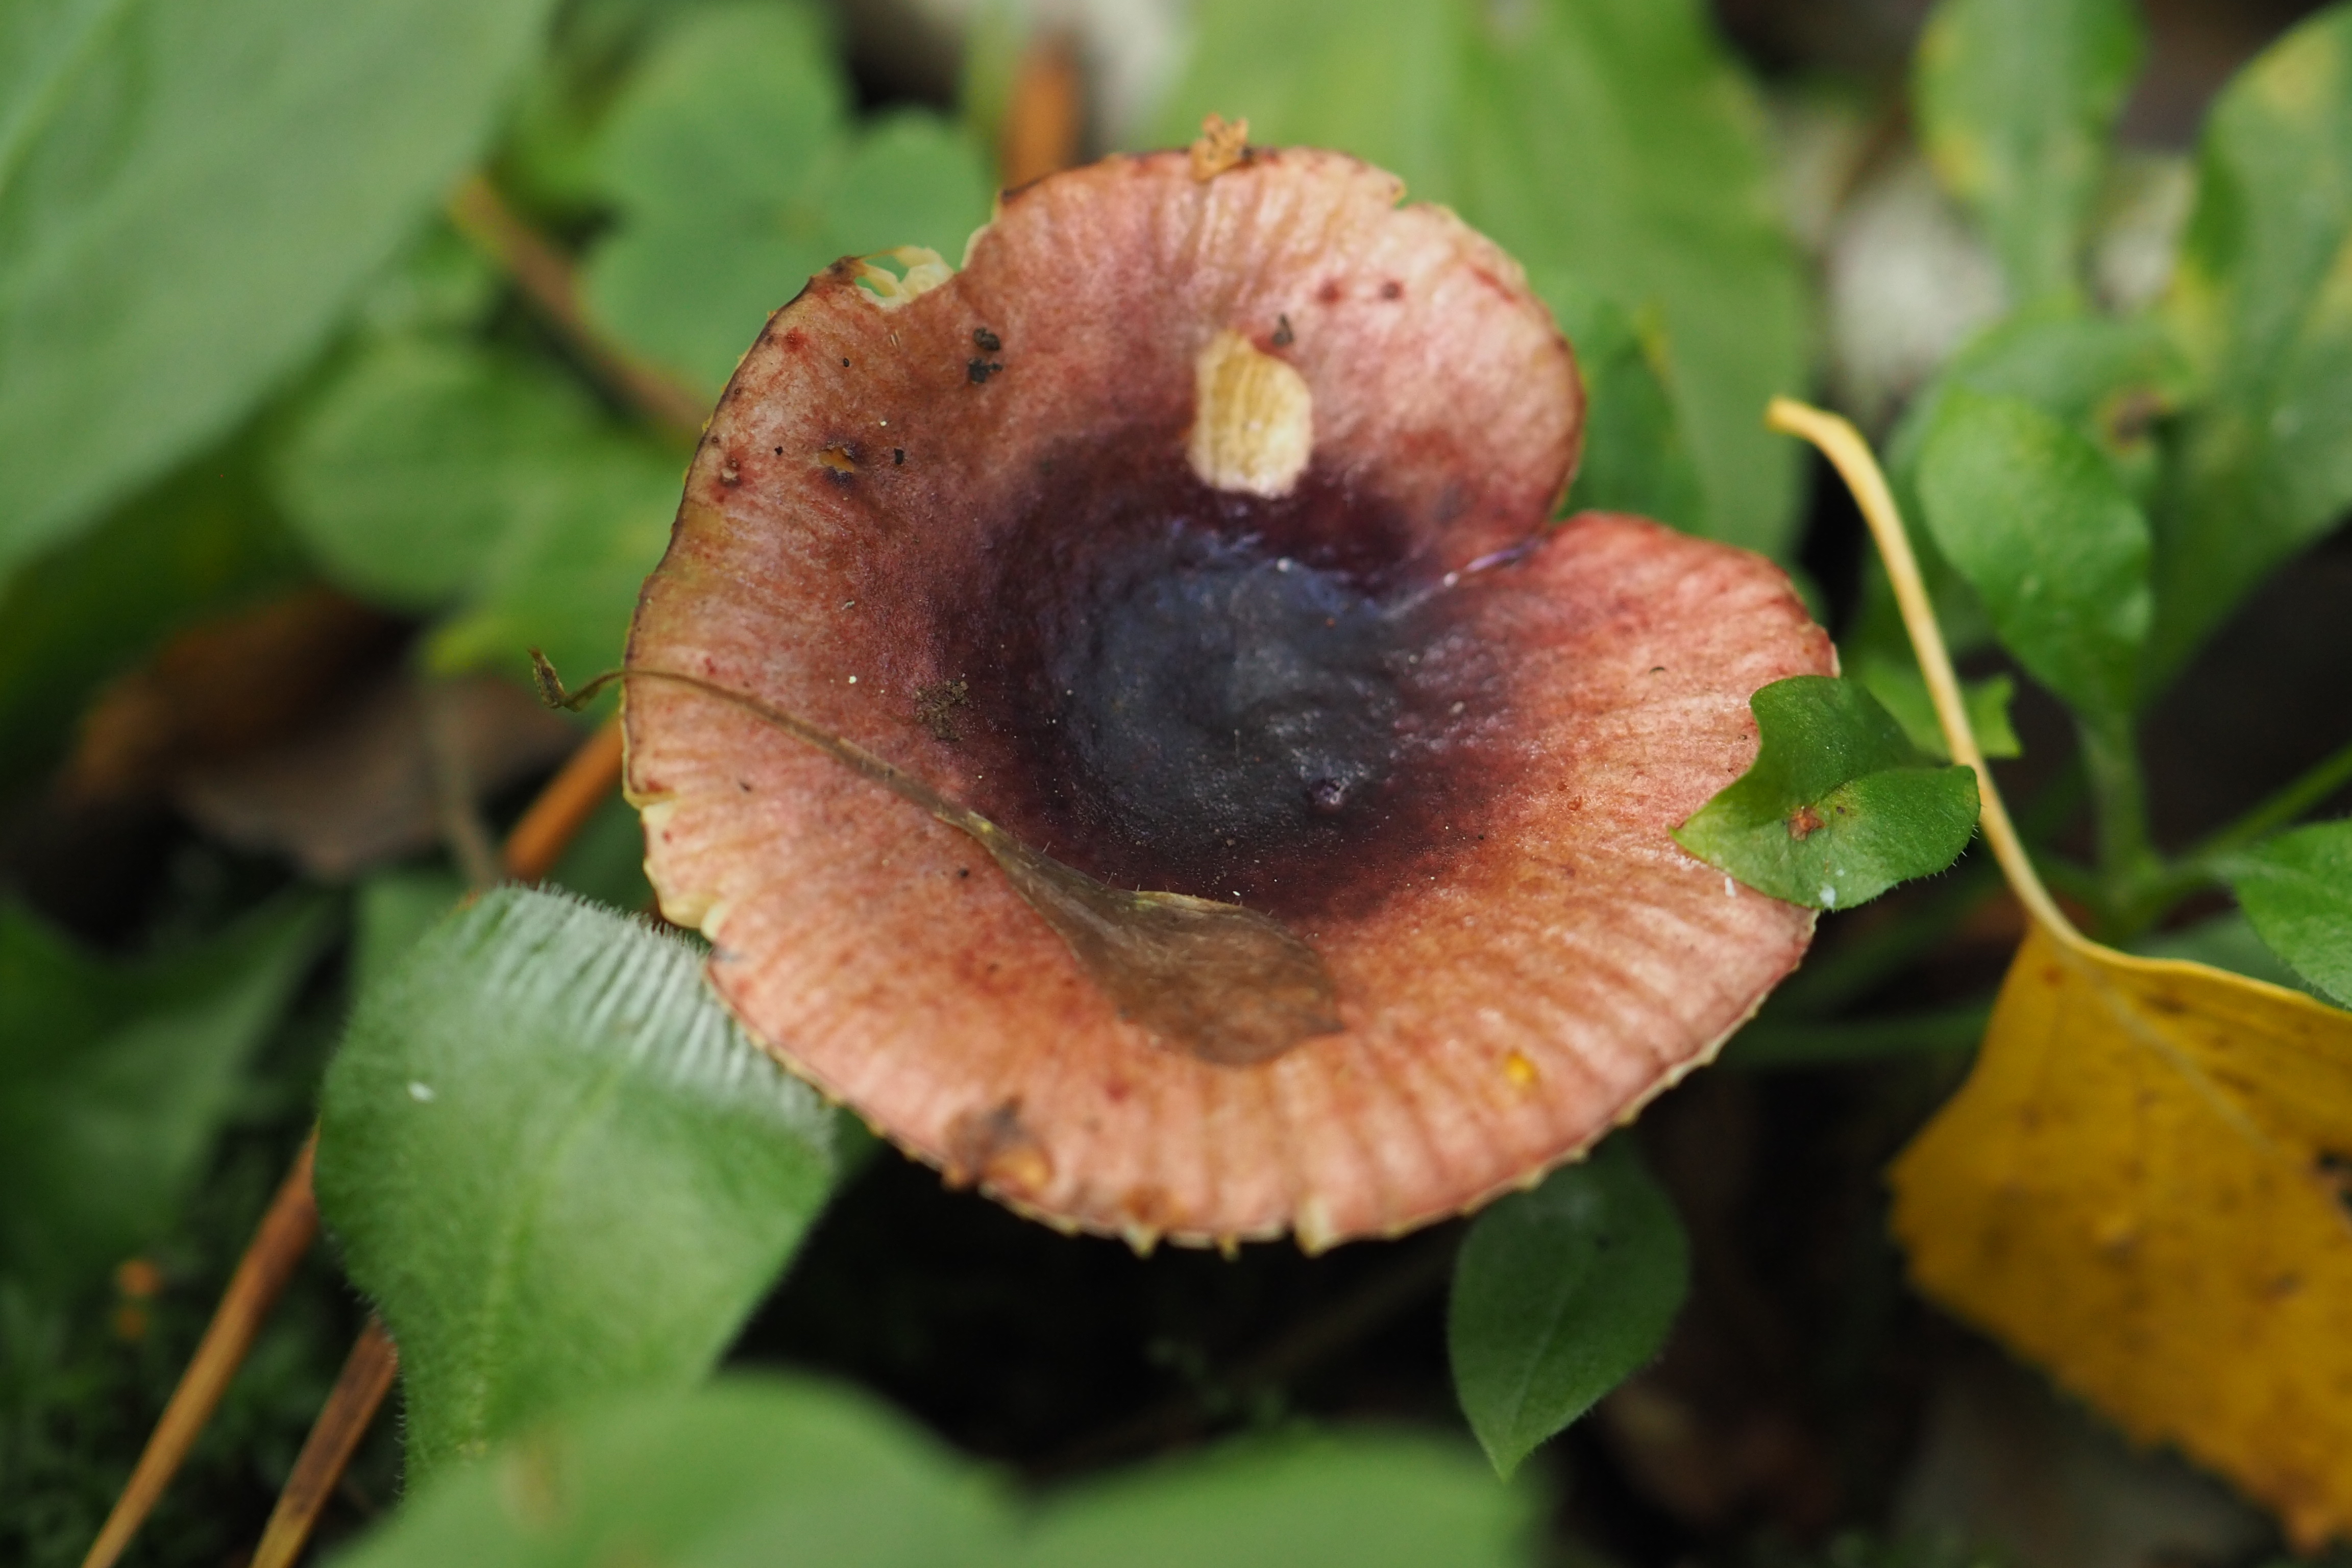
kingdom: Fungi
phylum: Basidiomycota
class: Agaricomycetes
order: Russulales
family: Russulaceae
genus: Russula
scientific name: Russula alnetorum
